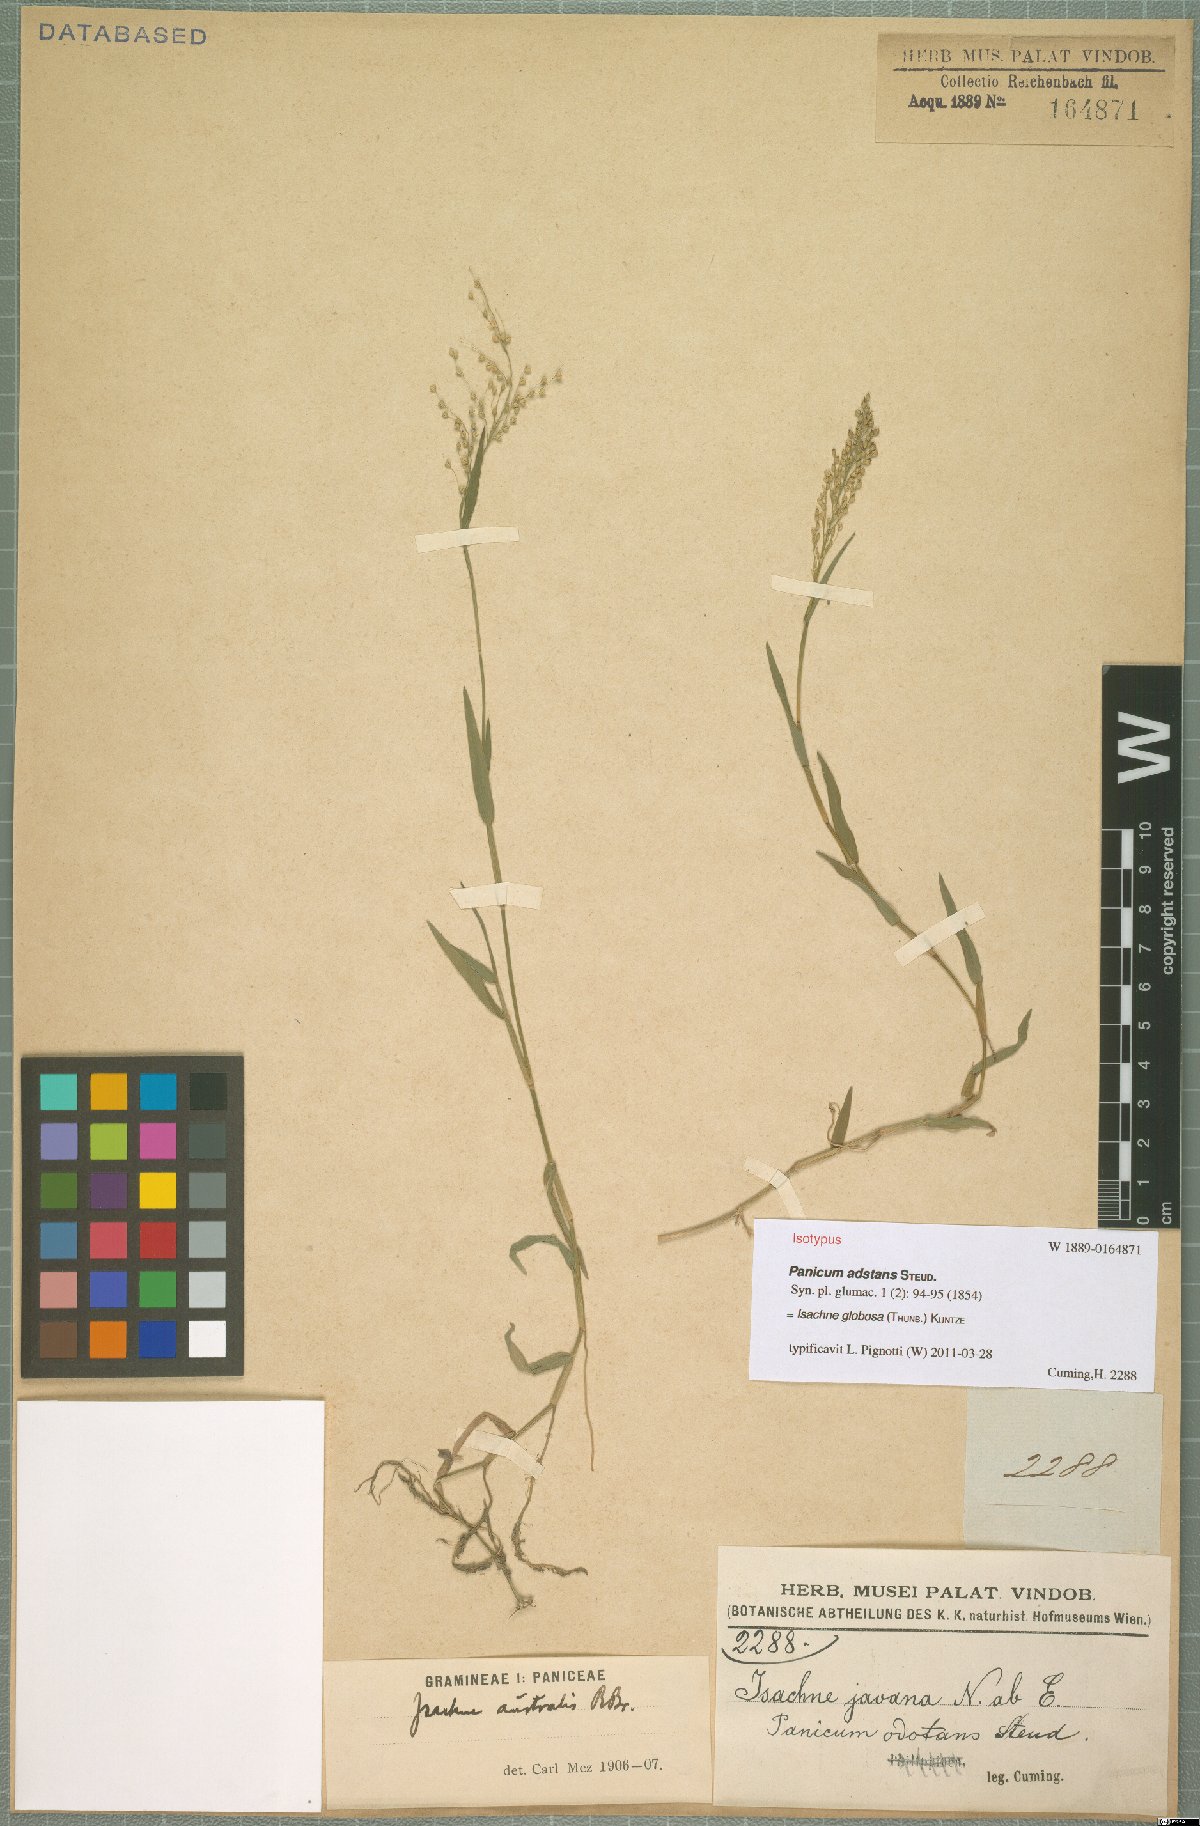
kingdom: Plantae
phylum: Tracheophyta
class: Liliopsida
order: Poales
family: Poaceae
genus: Isachne
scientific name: Isachne globosa
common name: Swamp millet
